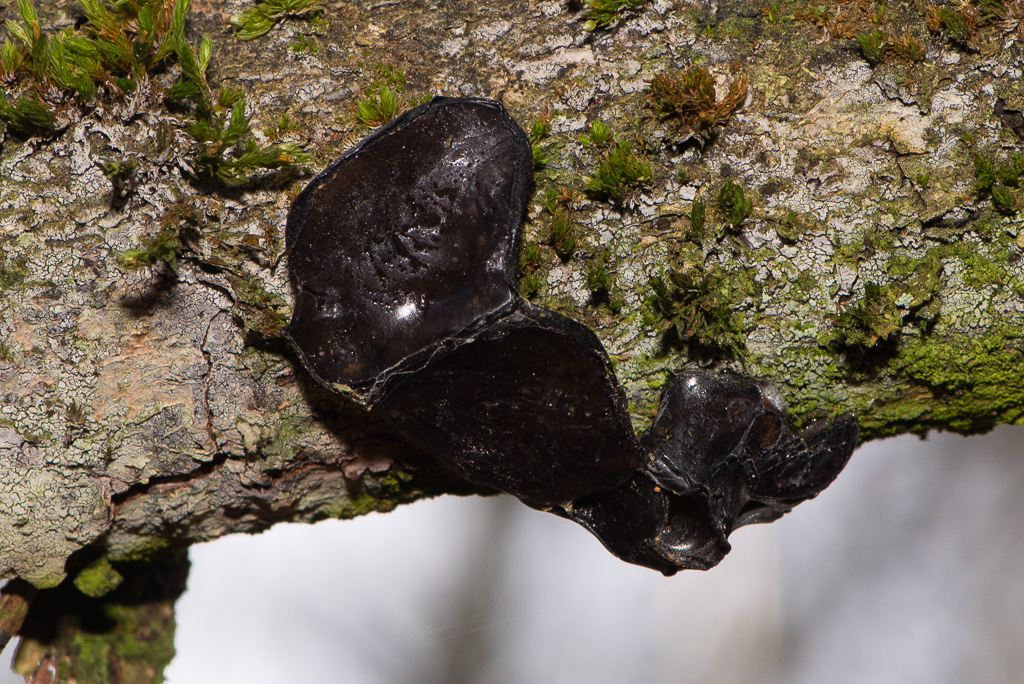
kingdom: Fungi
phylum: Basidiomycota
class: Agaricomycetes
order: Auriculariales
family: Auriculariaceae
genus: Exidia
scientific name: Exidia glandulosa
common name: ege-bævretop
